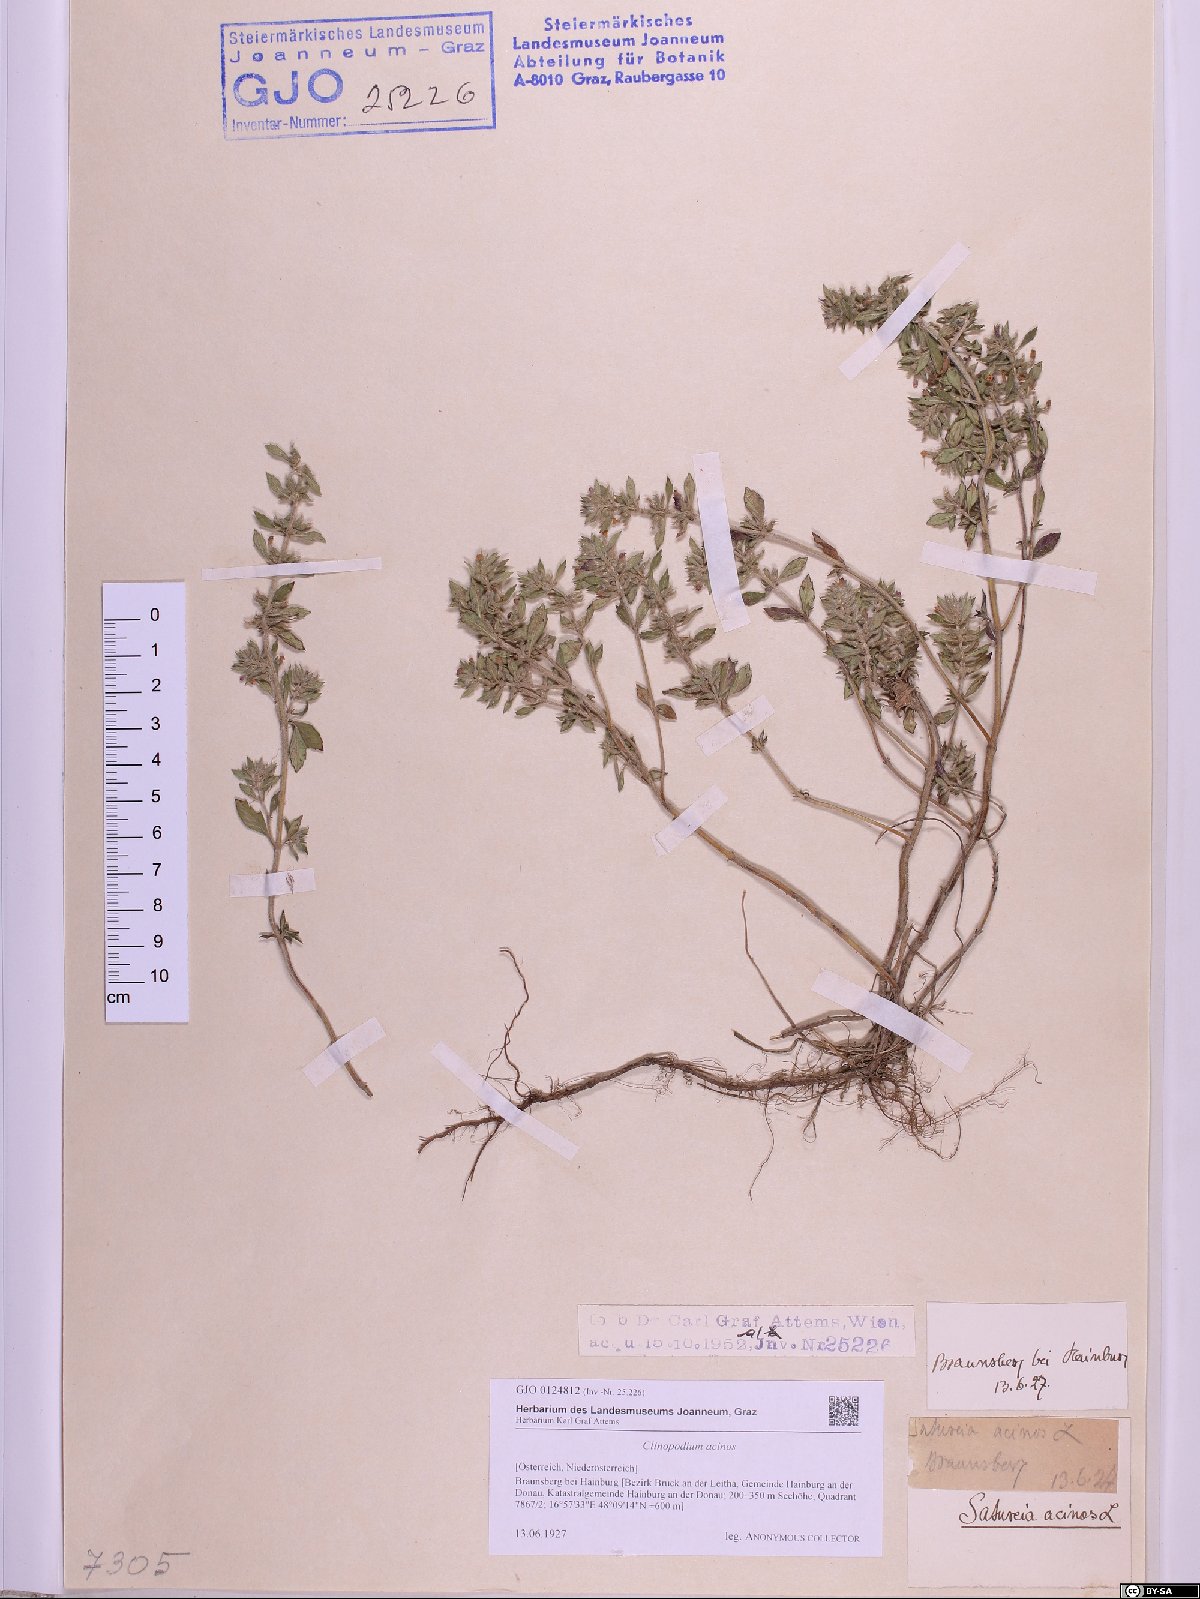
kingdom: Plantae
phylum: Tracheophyta
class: Magnoliopsida
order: Lamiales
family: Lamiaceae
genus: Clinopodium
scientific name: Clinopodium acinos
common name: Basil thyme
